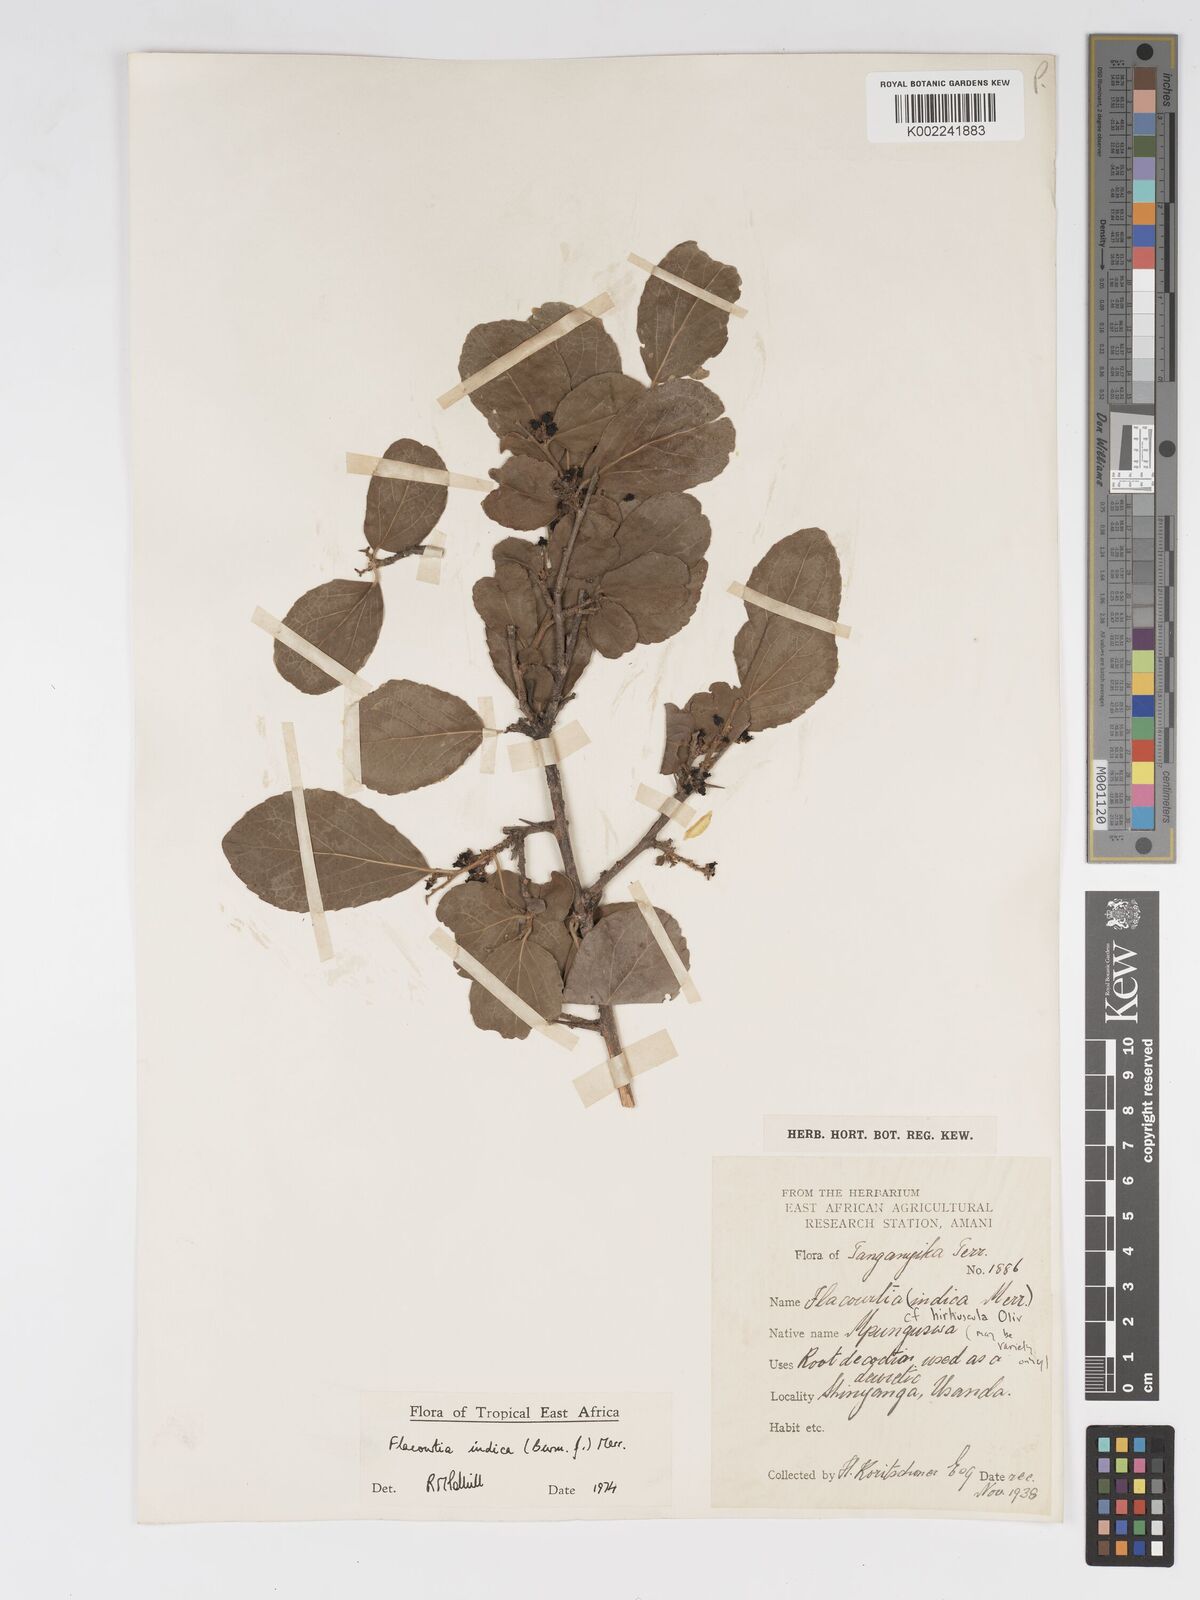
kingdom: Plantae
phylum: Tracheophyta
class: Magnoliopsida
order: Malpighiales
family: Salicaceae
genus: Flacourtia
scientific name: Flacourtia indica
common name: Governor's plum
